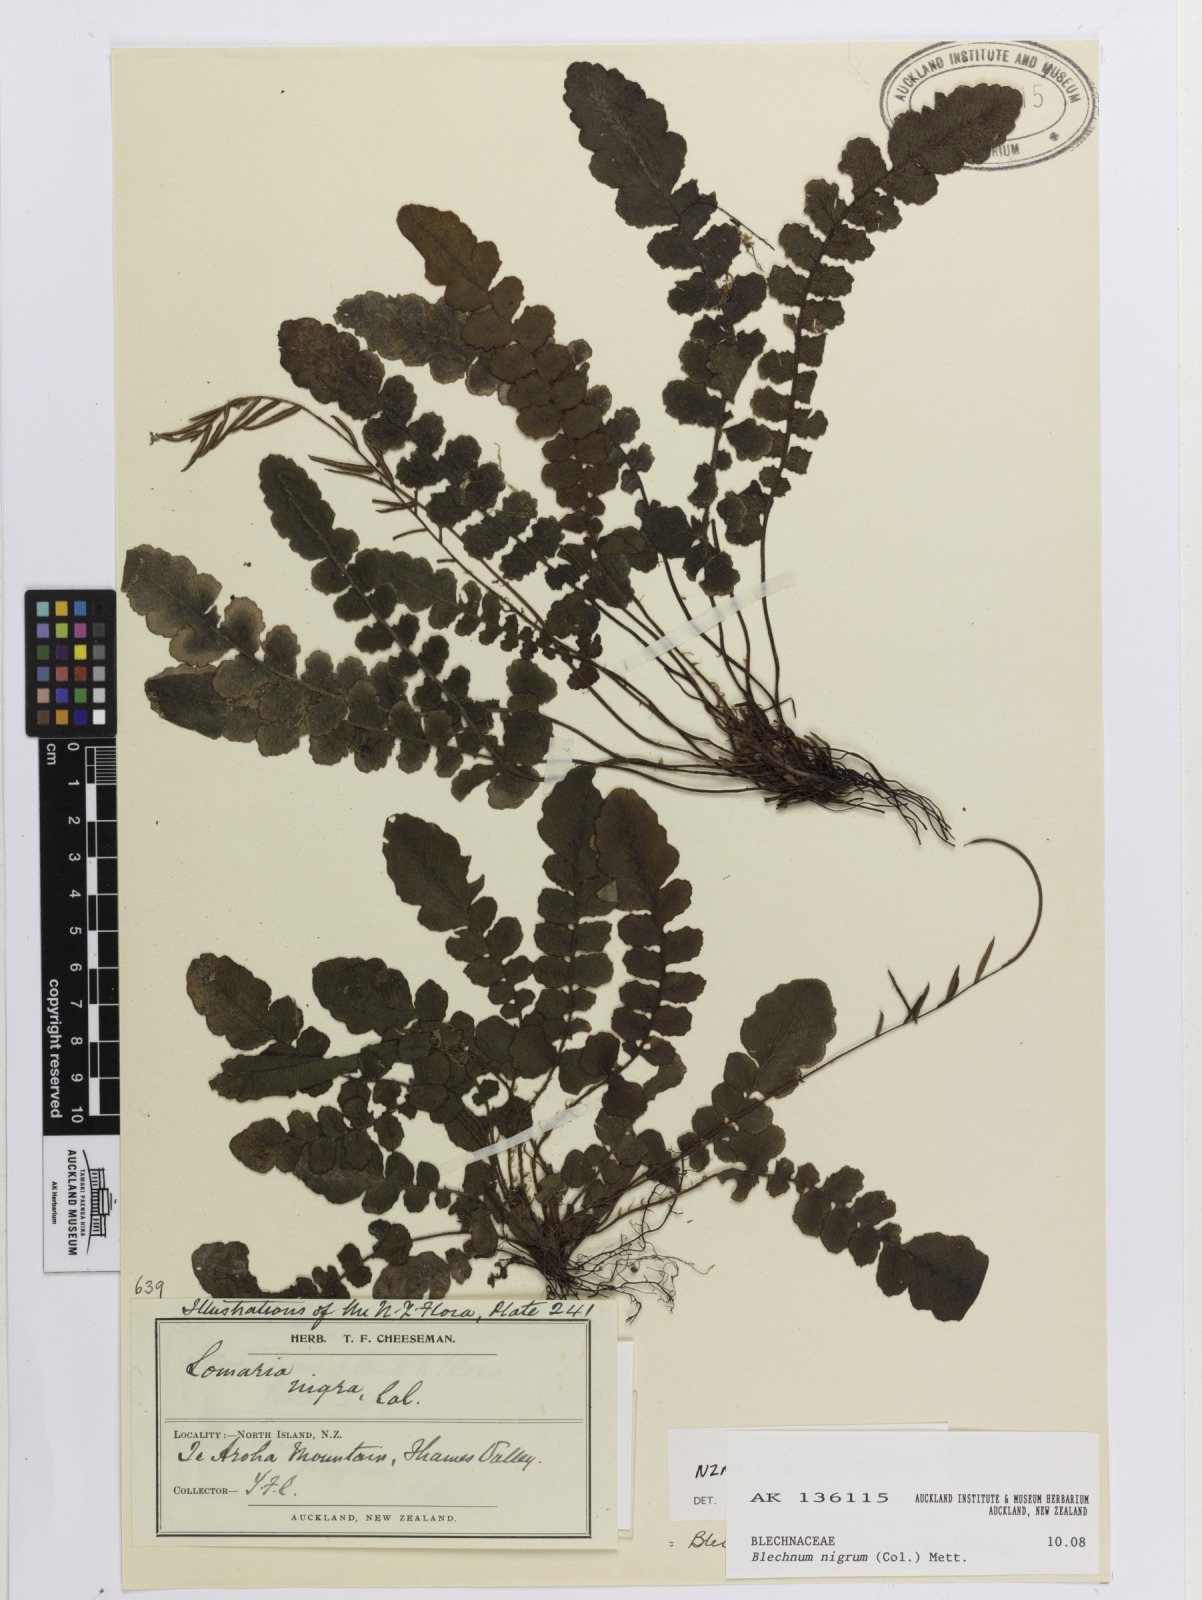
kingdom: Plantae
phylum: Tracheophyta
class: Polypodiopsida
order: Polypodiales
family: Blechnaceae
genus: Cranfillia
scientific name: Cranfillia nigra
